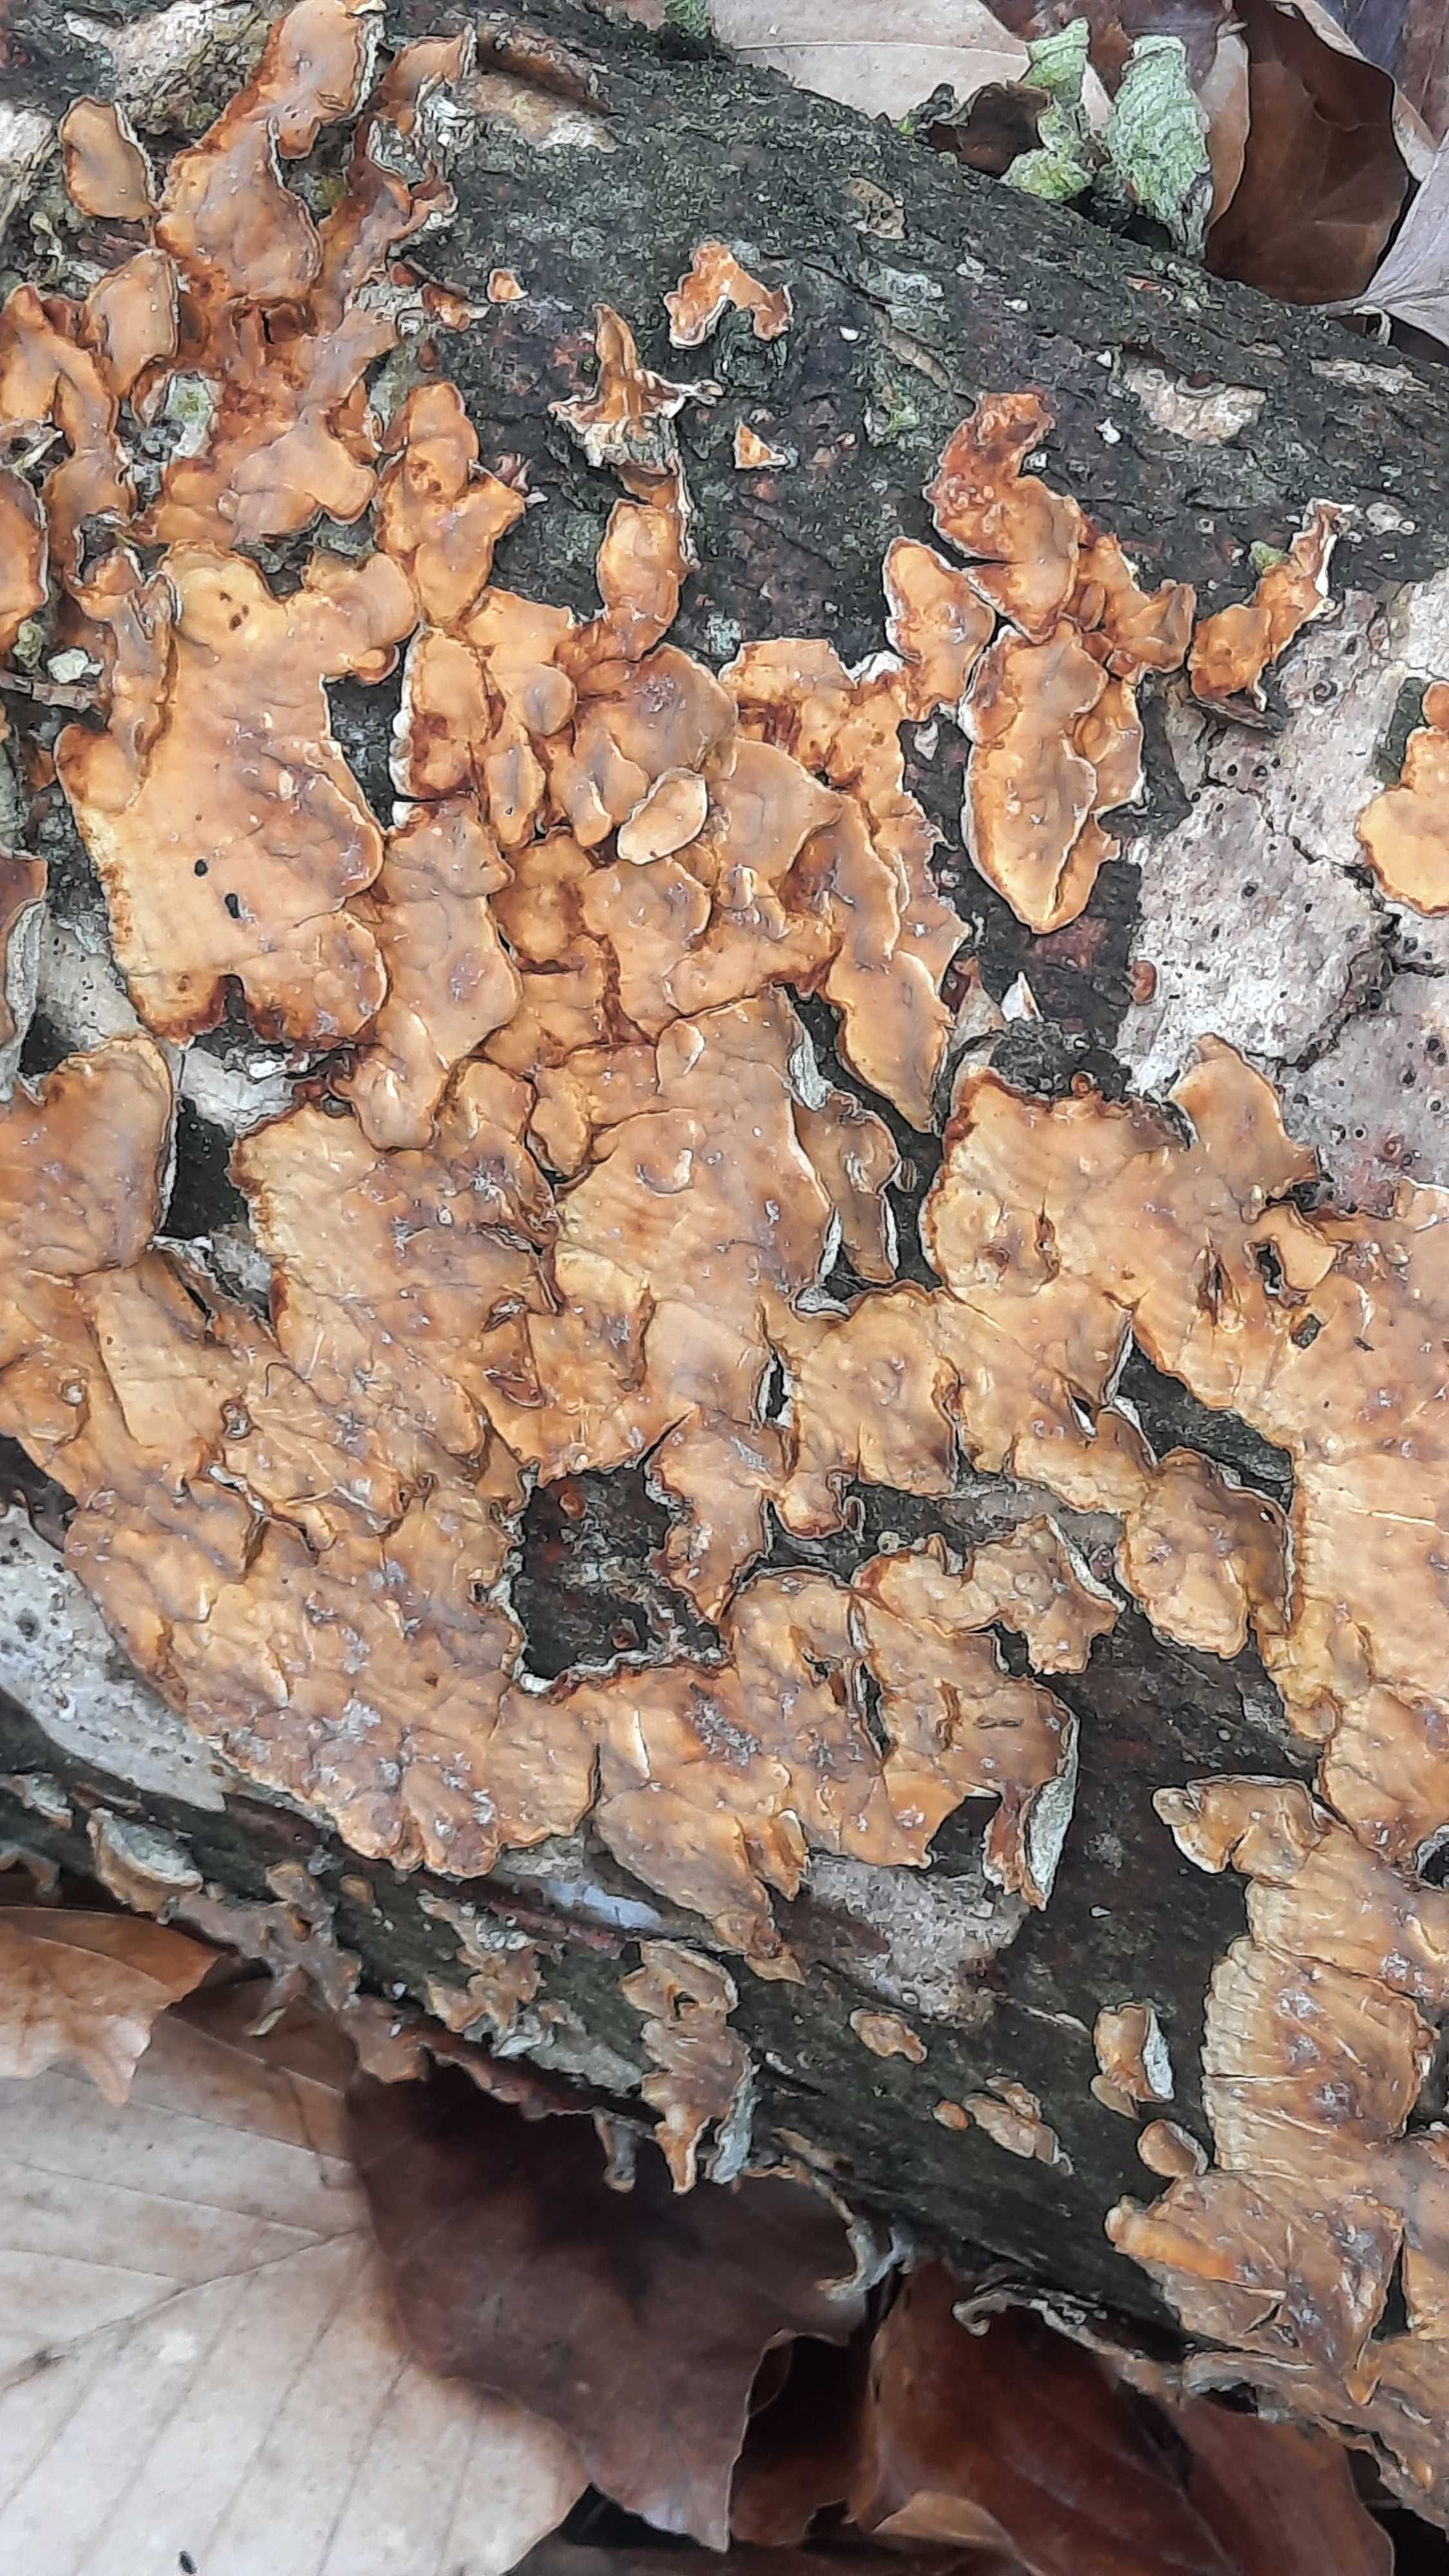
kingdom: Fungi
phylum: Basidiomycota
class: Agaricomycetes
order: Russulales
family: Stereaceae
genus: Stereum
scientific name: Stereum hirsutum
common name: håret lædersvamp
